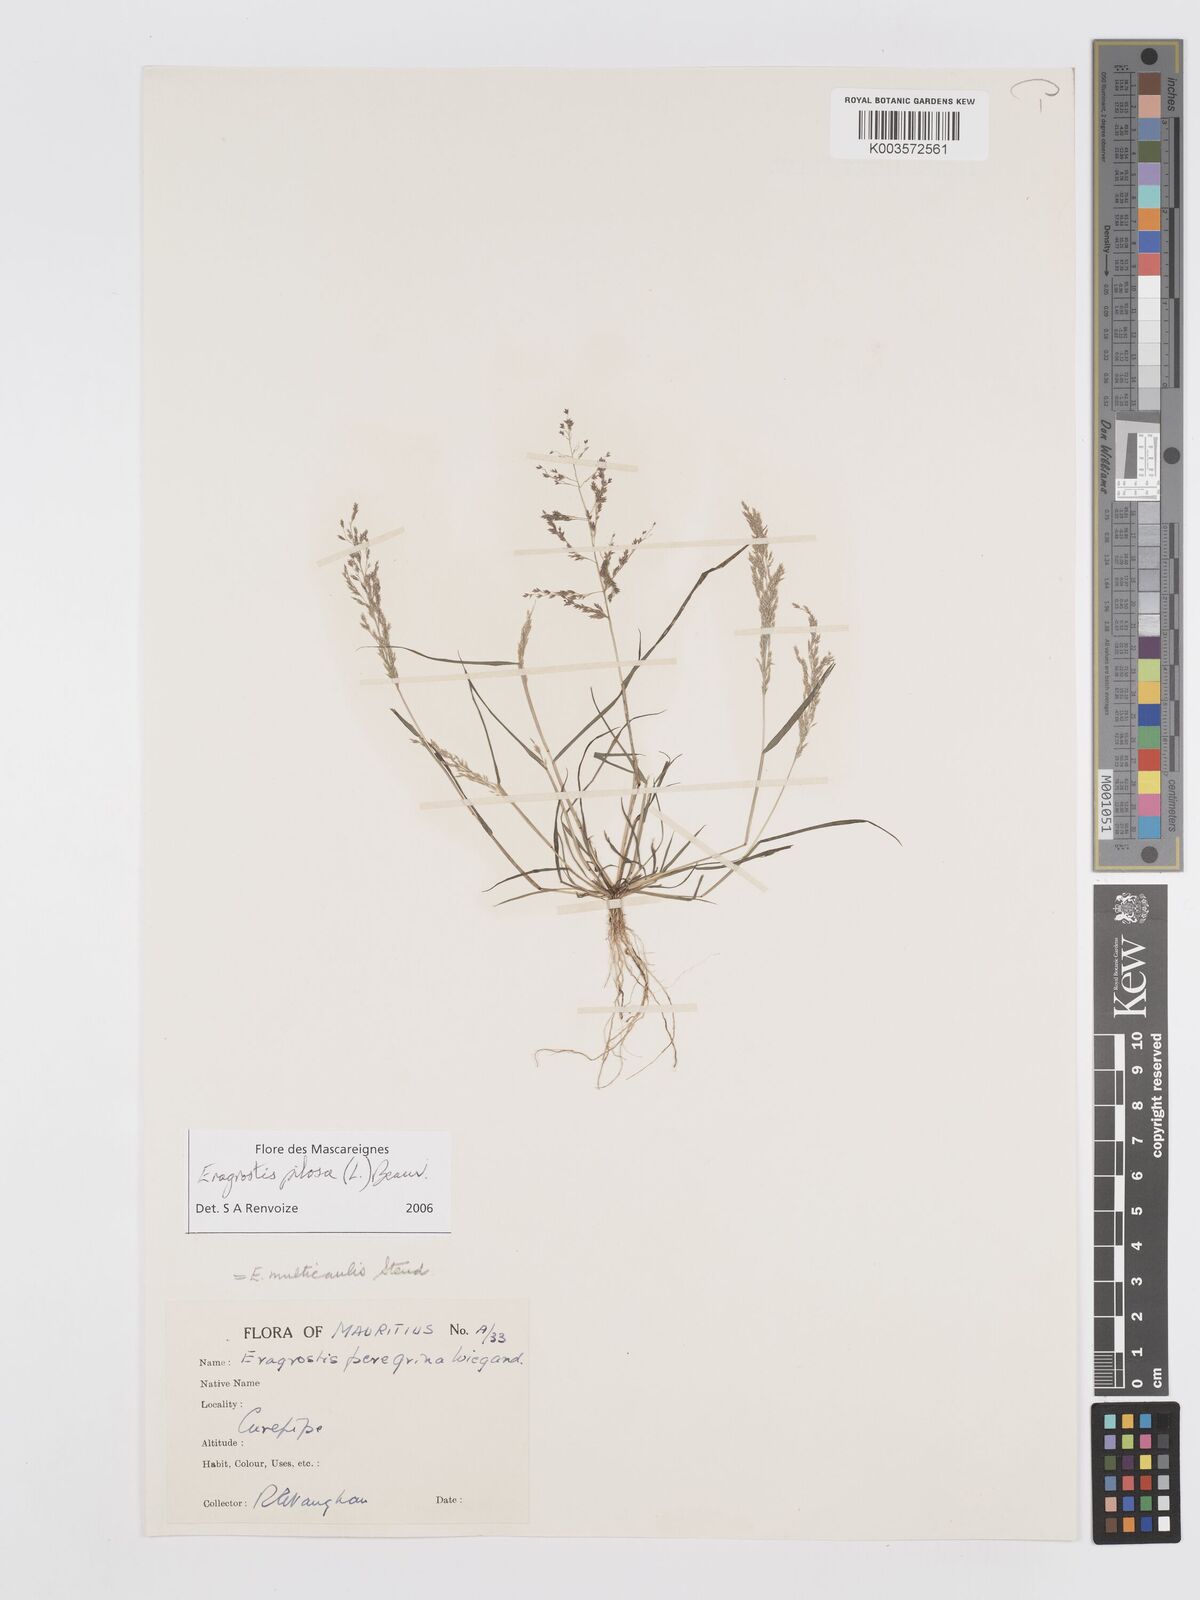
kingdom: Plantae
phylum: Tracheophyta
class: Liliopsida
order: Poales
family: Poaceae
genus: Eragrostis
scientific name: Eragrostis pilosa
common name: Indian lovegrass
